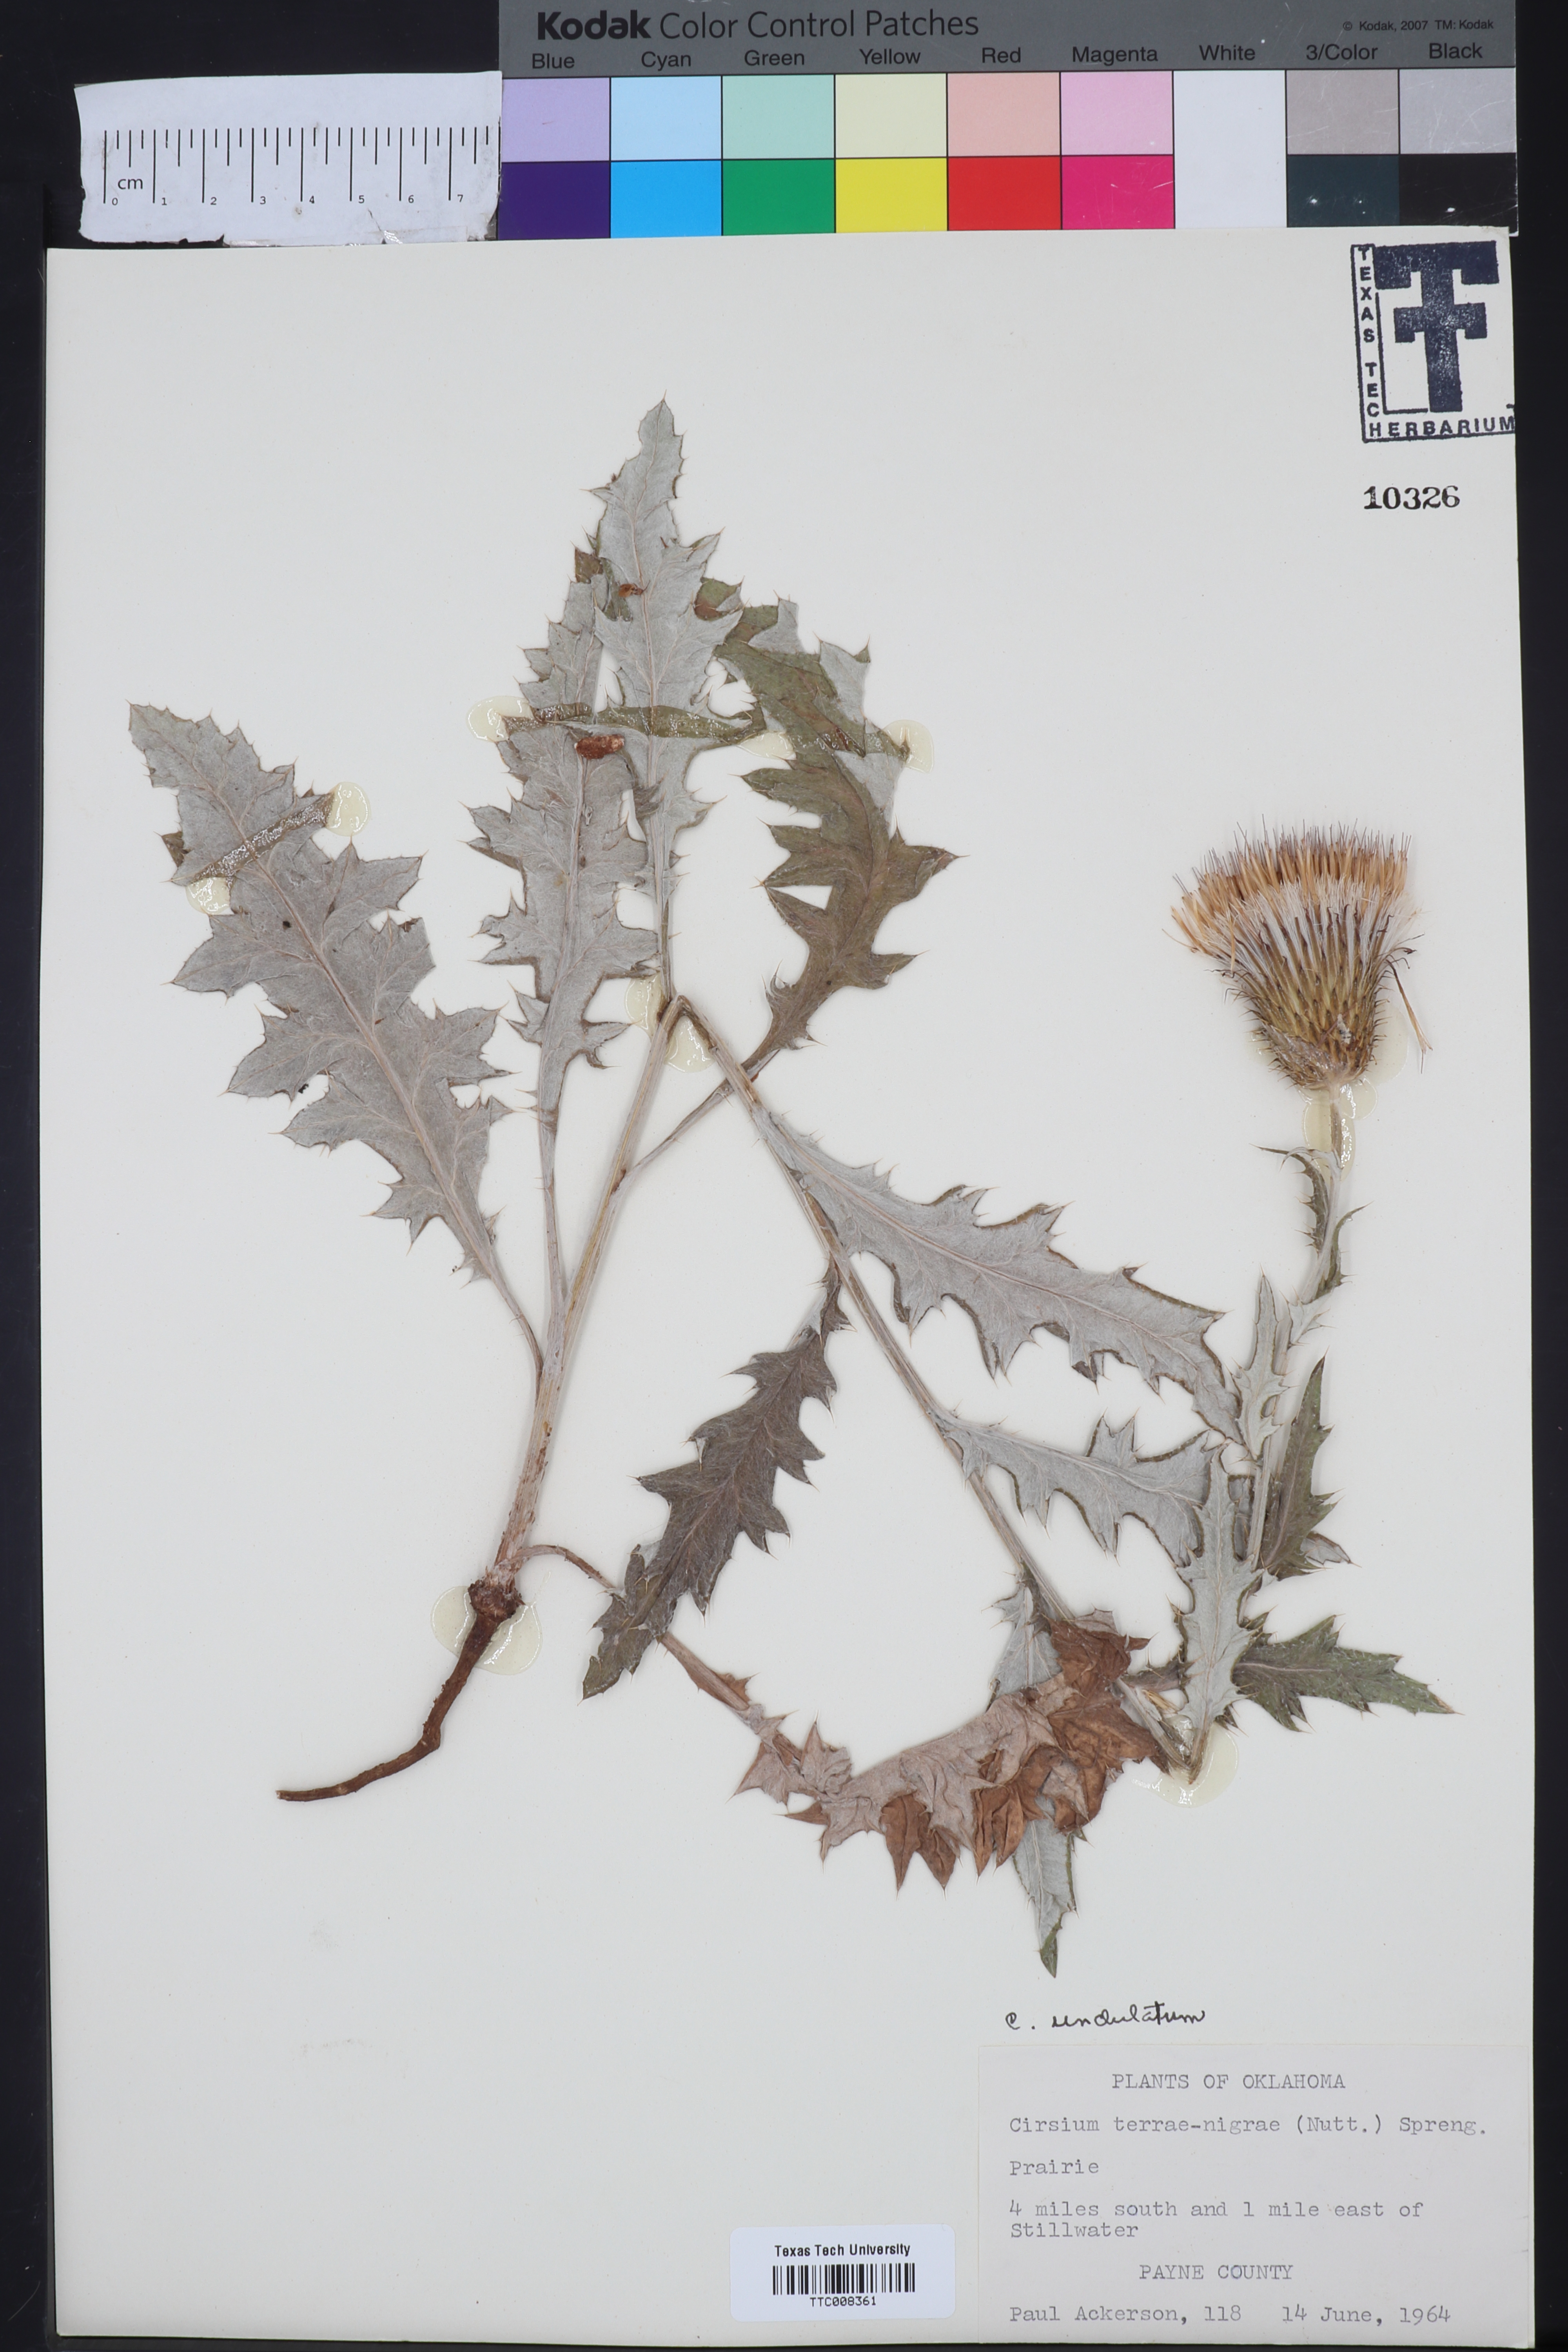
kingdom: Plantae
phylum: Tracheophyta
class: Magnoliopsida
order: Asterales
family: Asteraceae
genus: Cirsium
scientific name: Cirsium undulatum
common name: Pasture thistle
